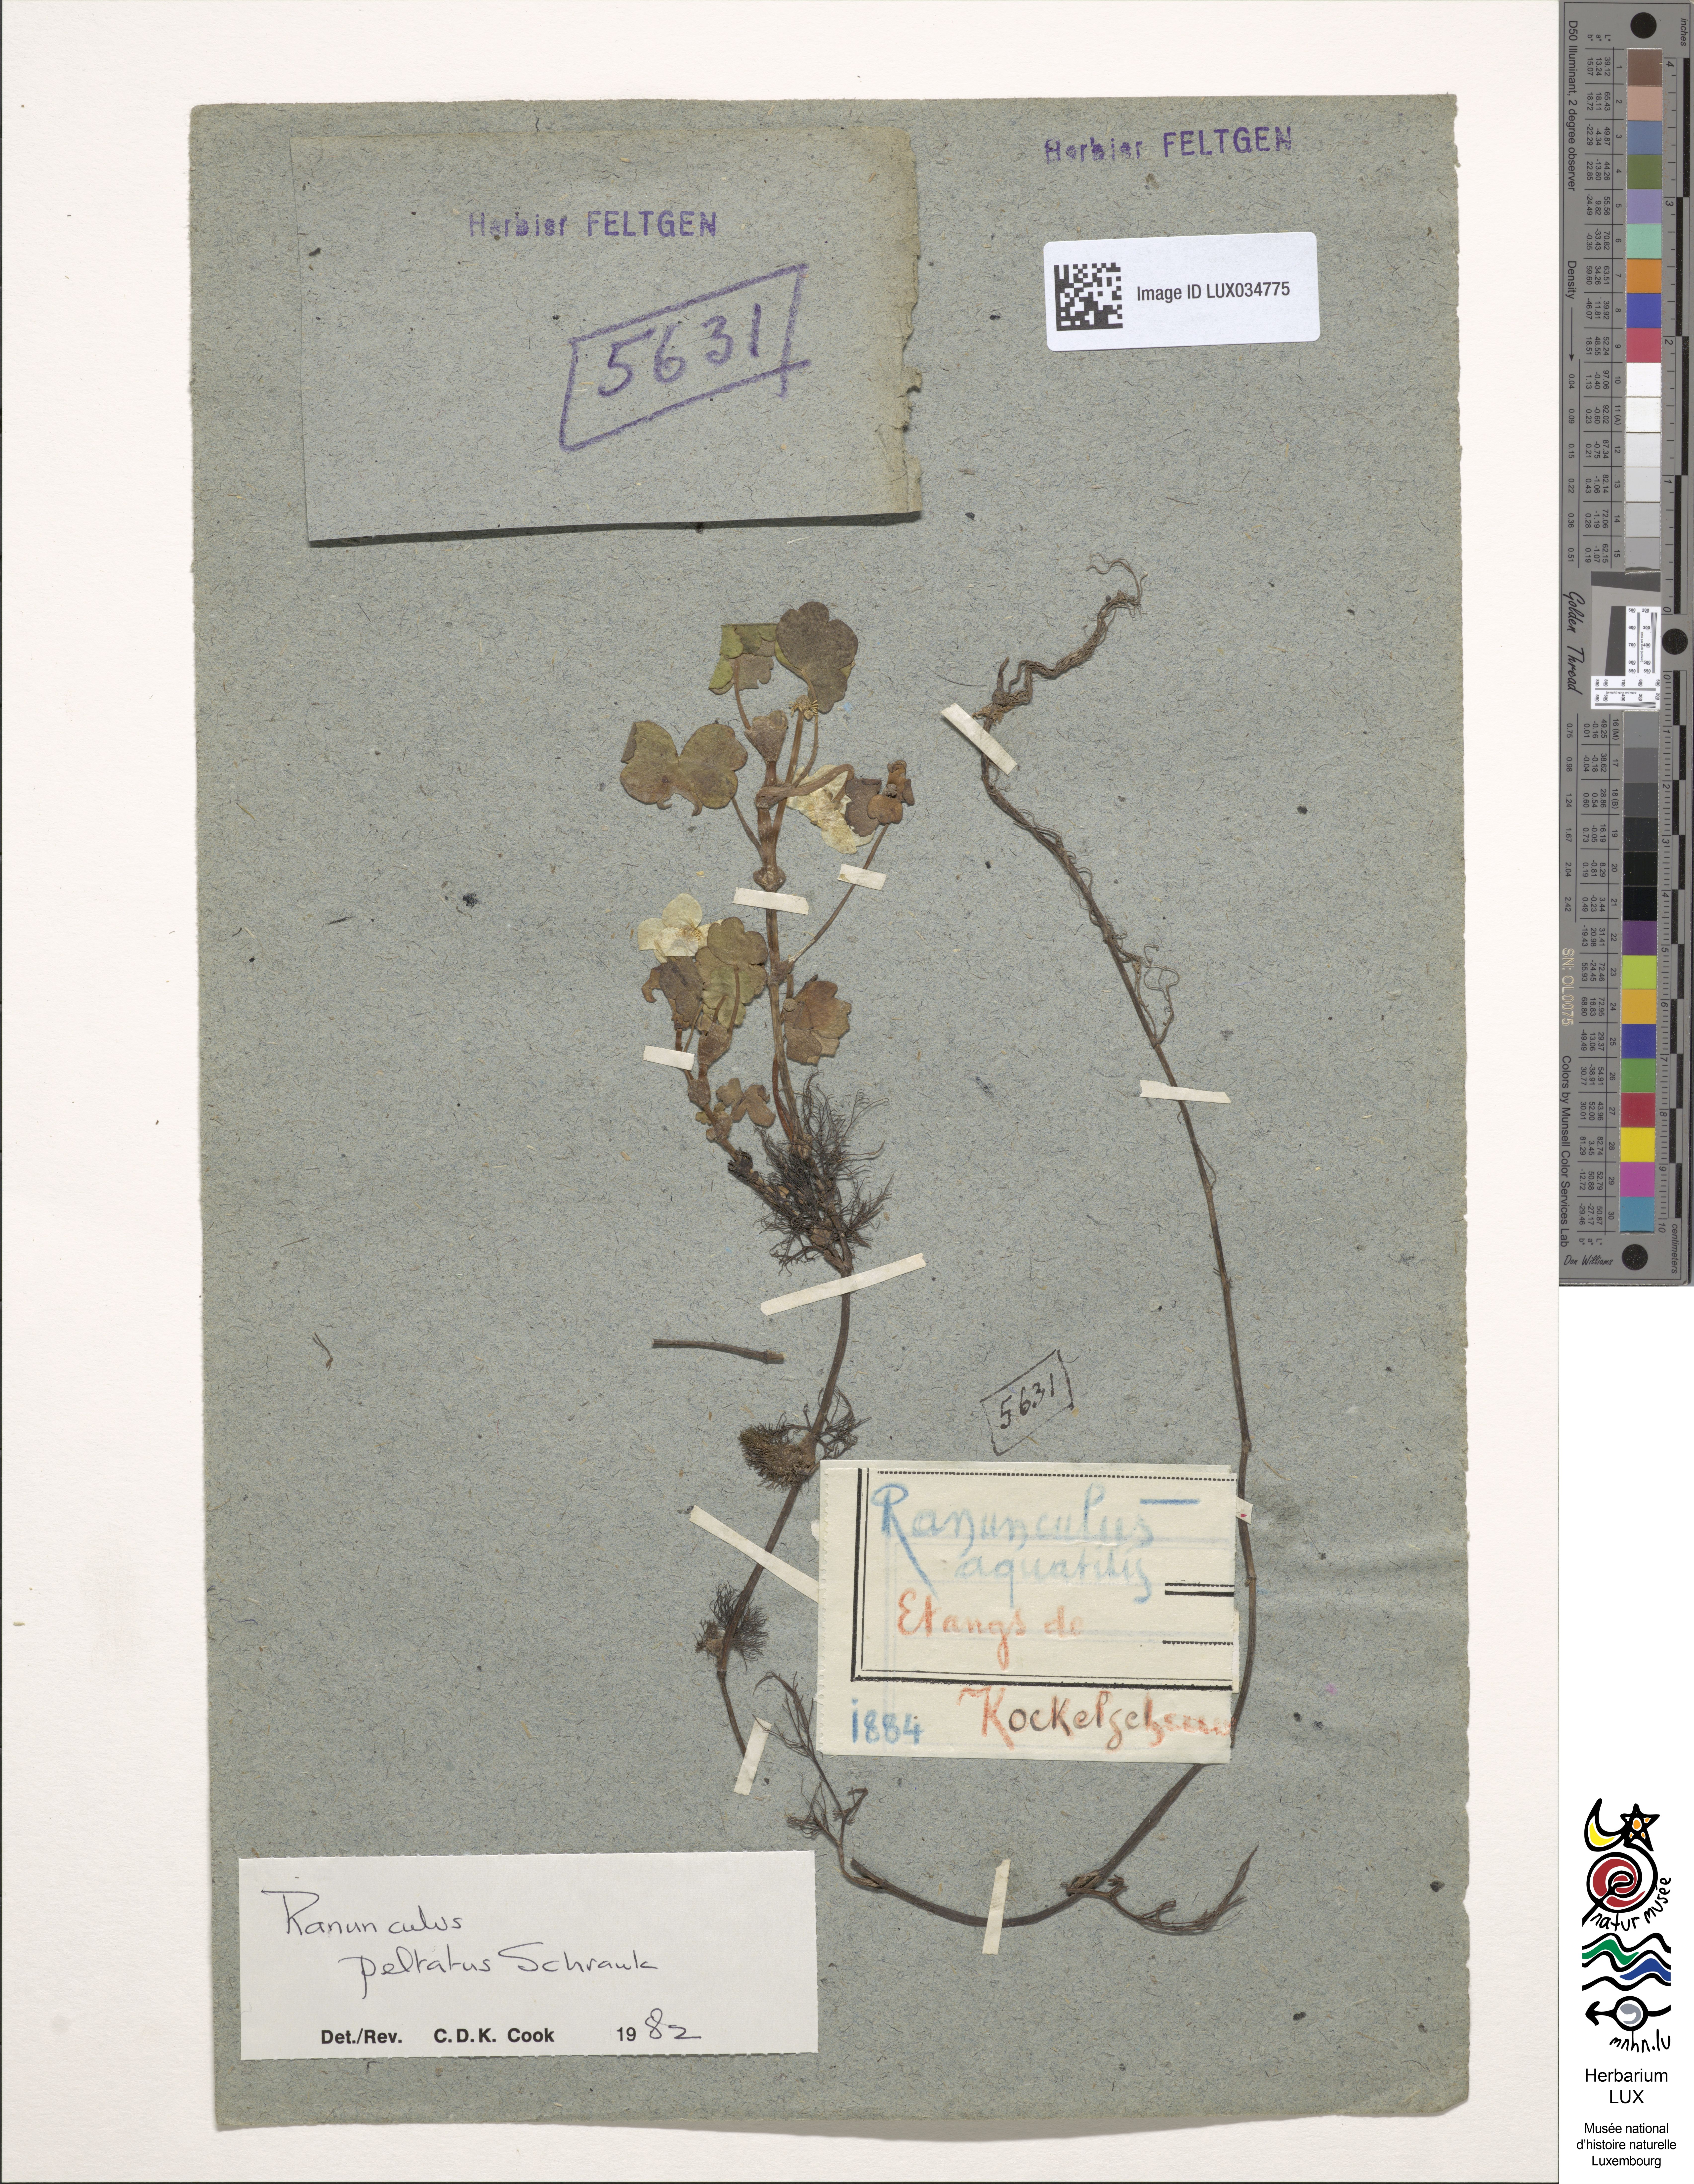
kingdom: Plantae
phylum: Tracheophyta
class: Magnoliopsida
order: Ranunculales
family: Ranunculaceae
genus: Ranunculus
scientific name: Ranunculus aquatilis
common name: Common water-crowfoot
